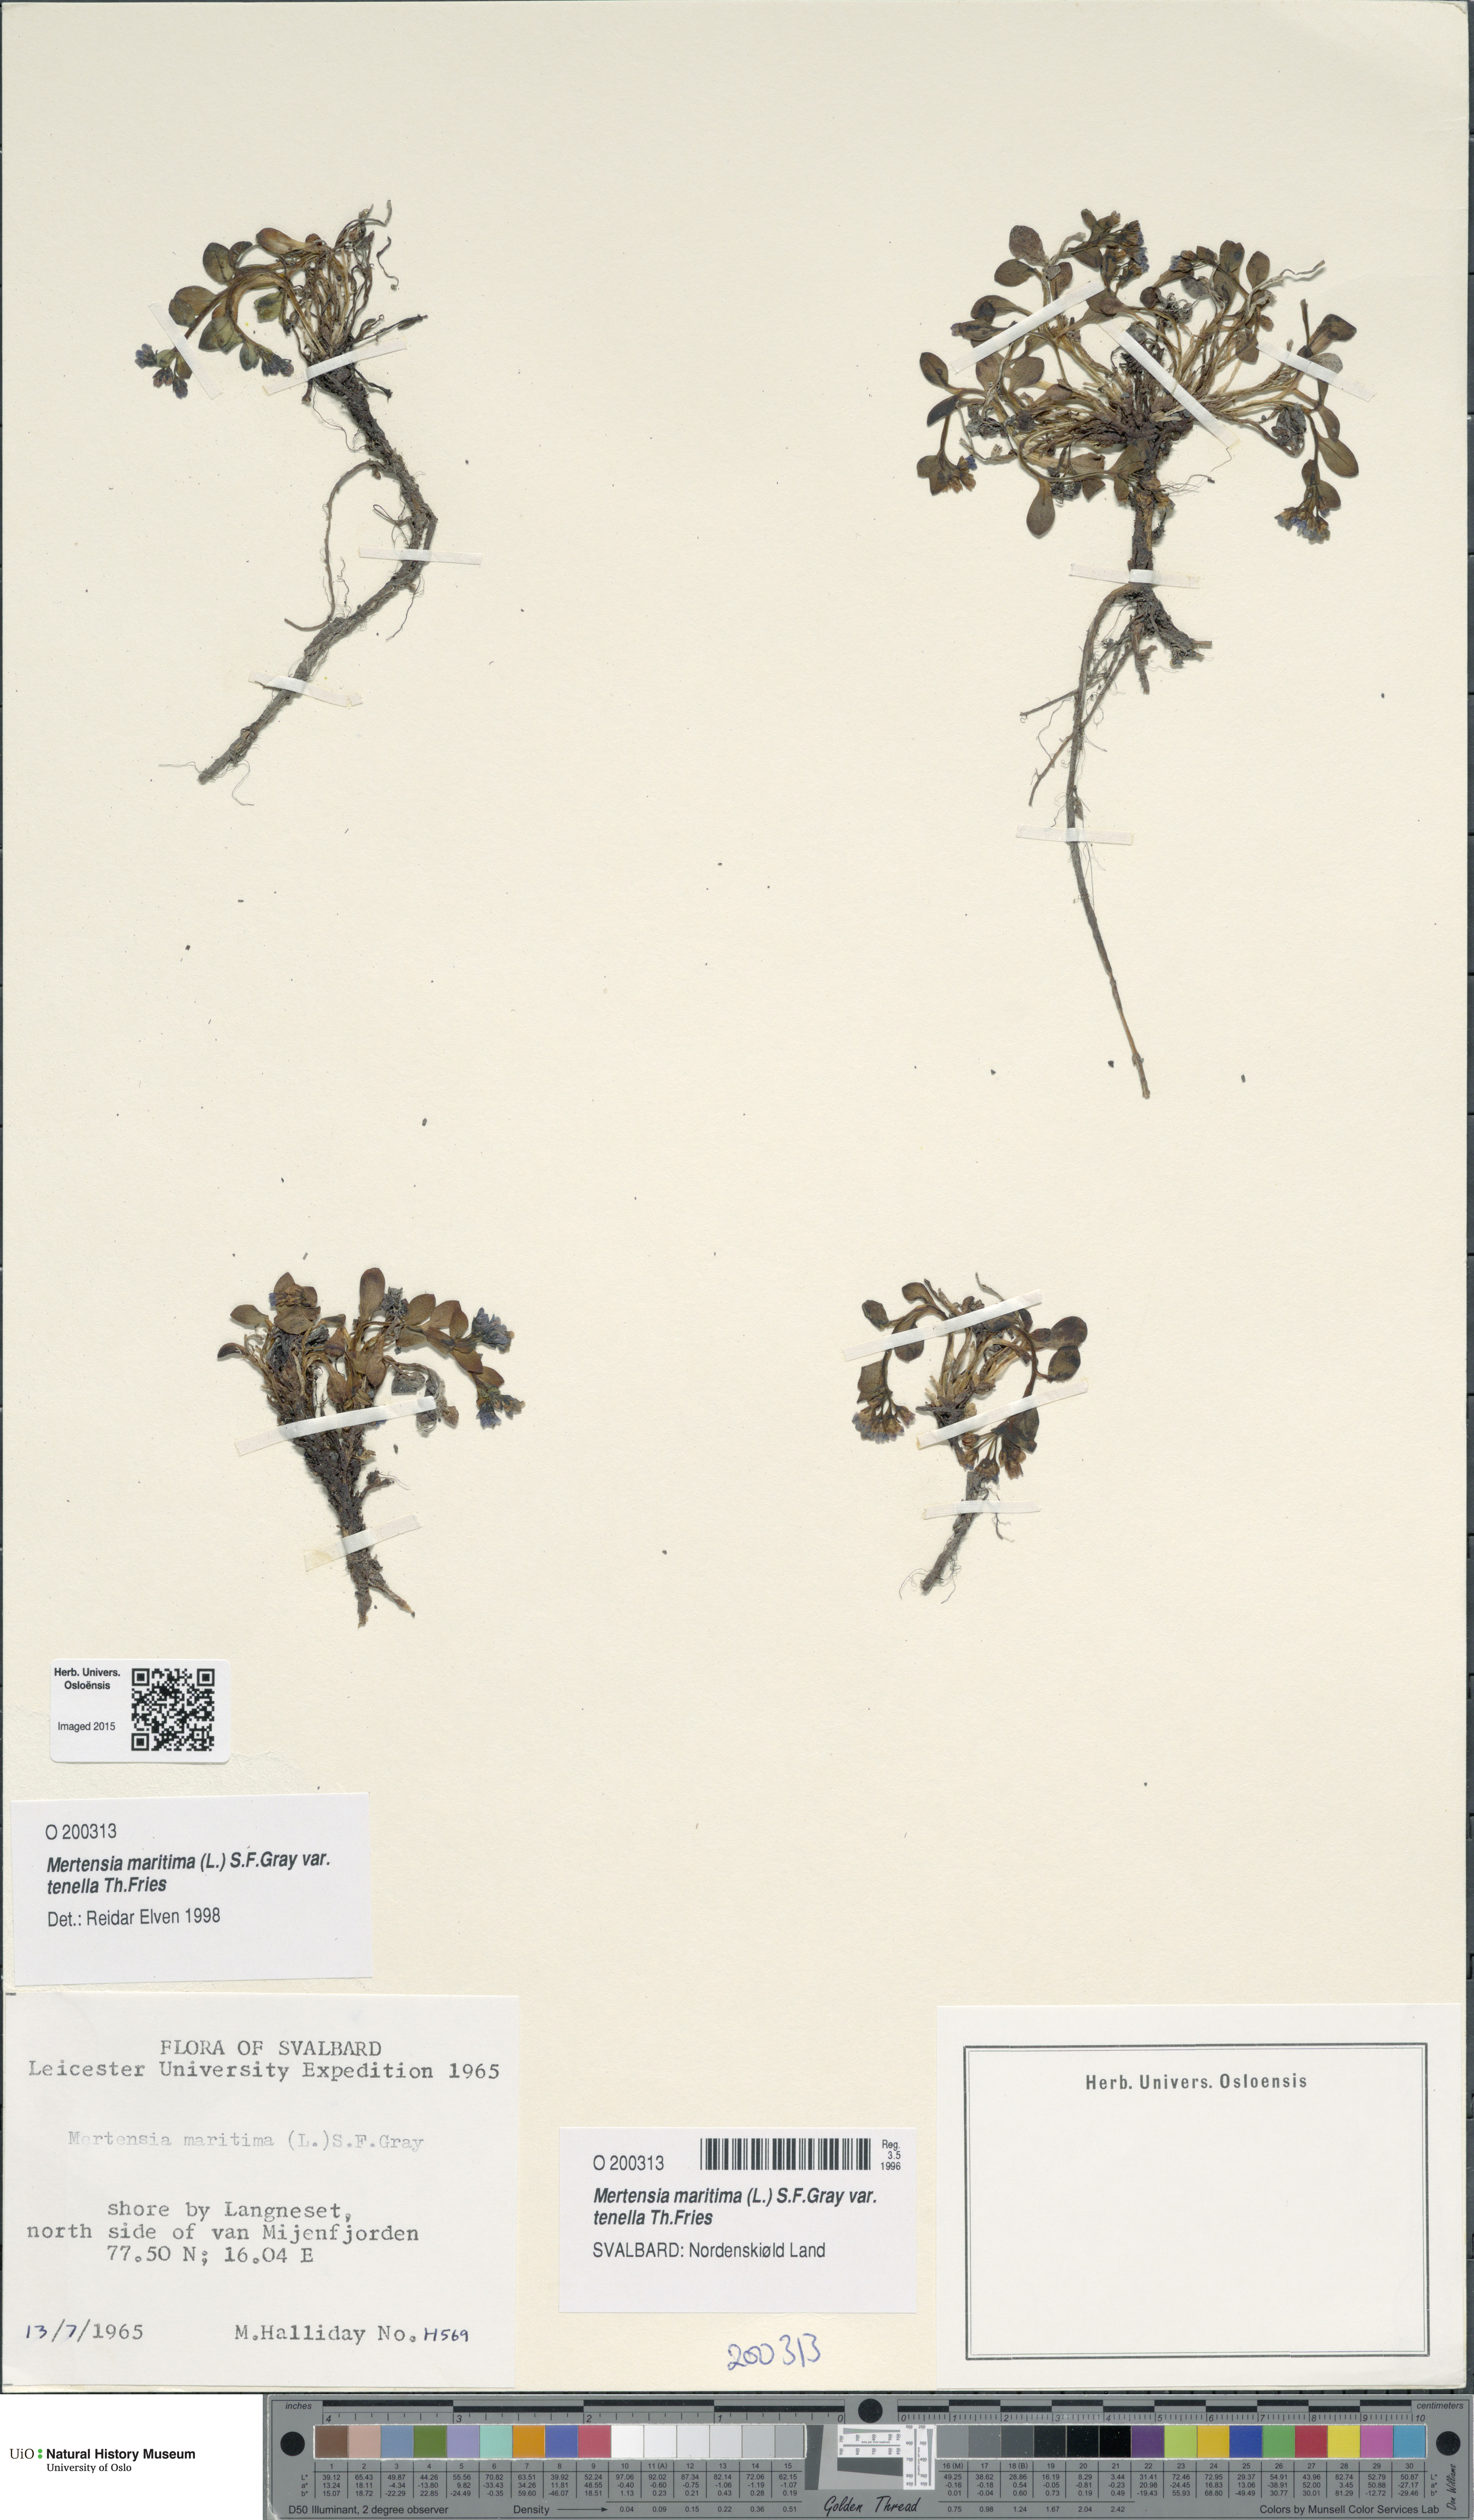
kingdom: Plantae
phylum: Tracheophyta
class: Magnoliopsida
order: Boraginales
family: Boraginaceae
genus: Mertensia
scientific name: Mertensia maritima
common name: Oysterplant
